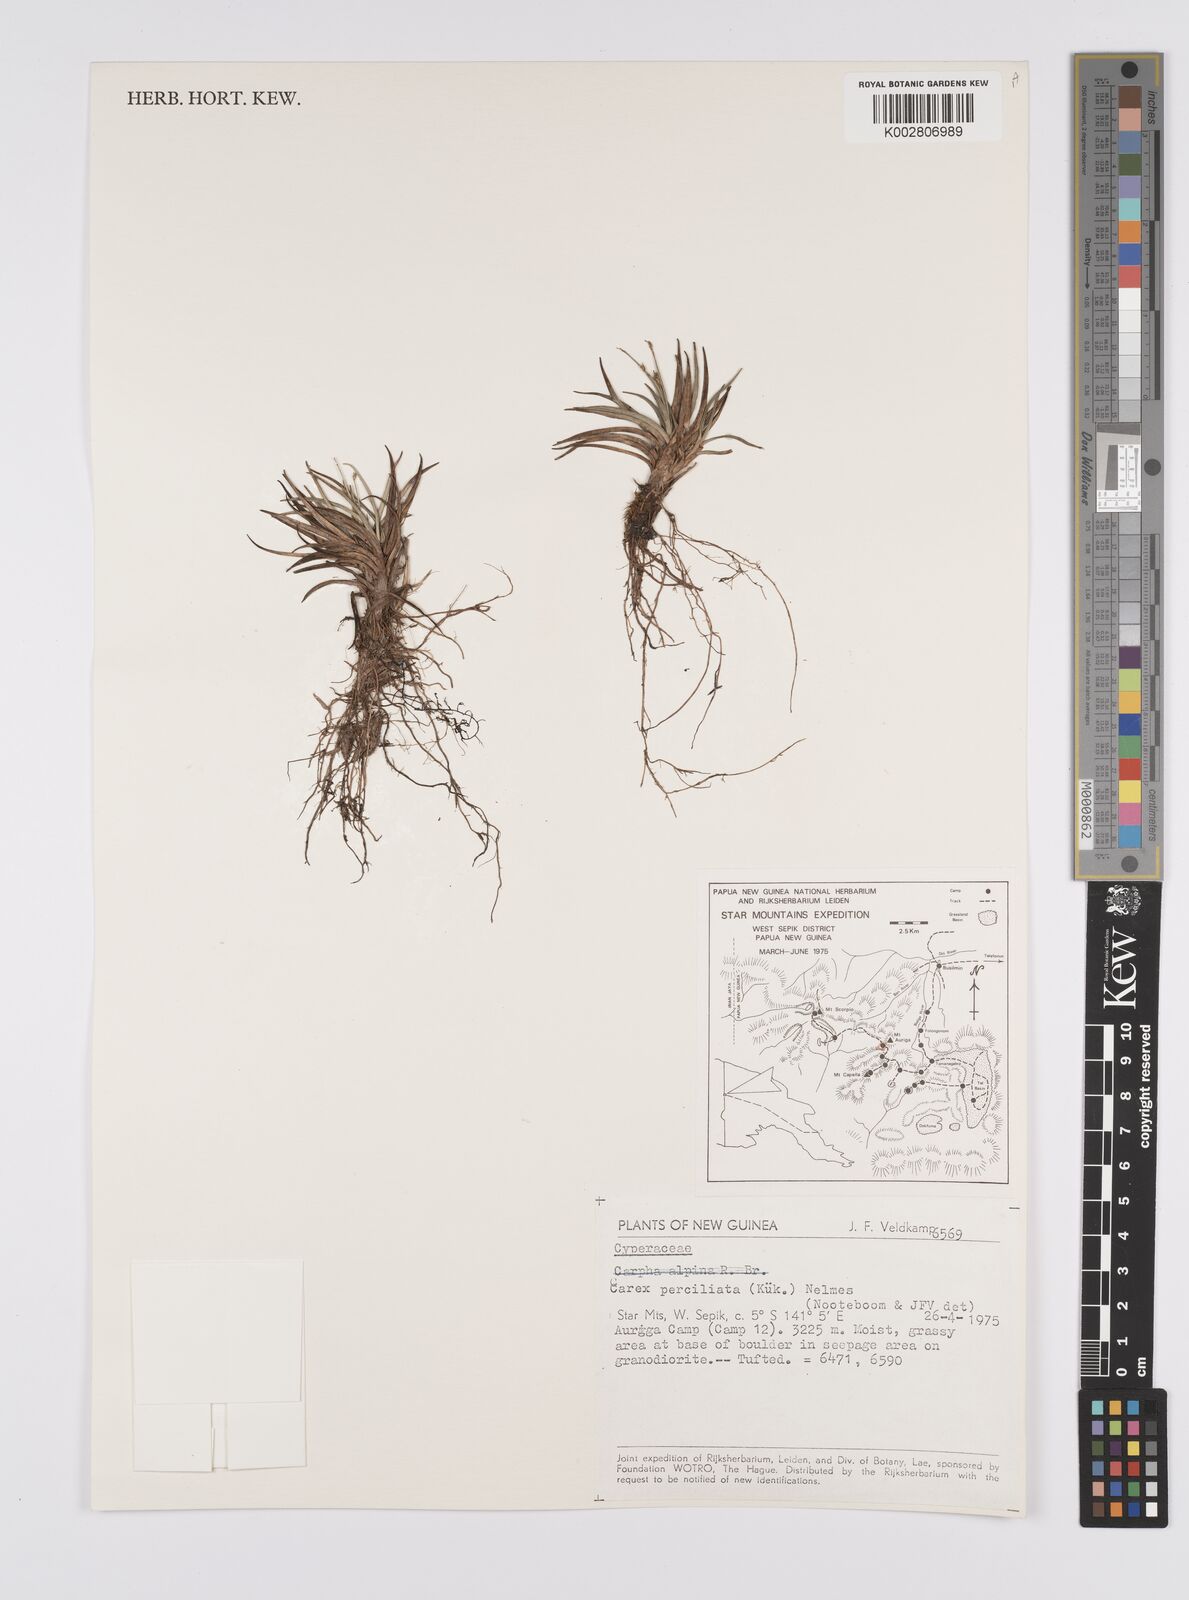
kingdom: Plantae
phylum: Tracheophyta
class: Liliopsida
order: Poales
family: Cyperaceae
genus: Carex
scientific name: Carex breviculmis
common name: Asian shortstem sedge
